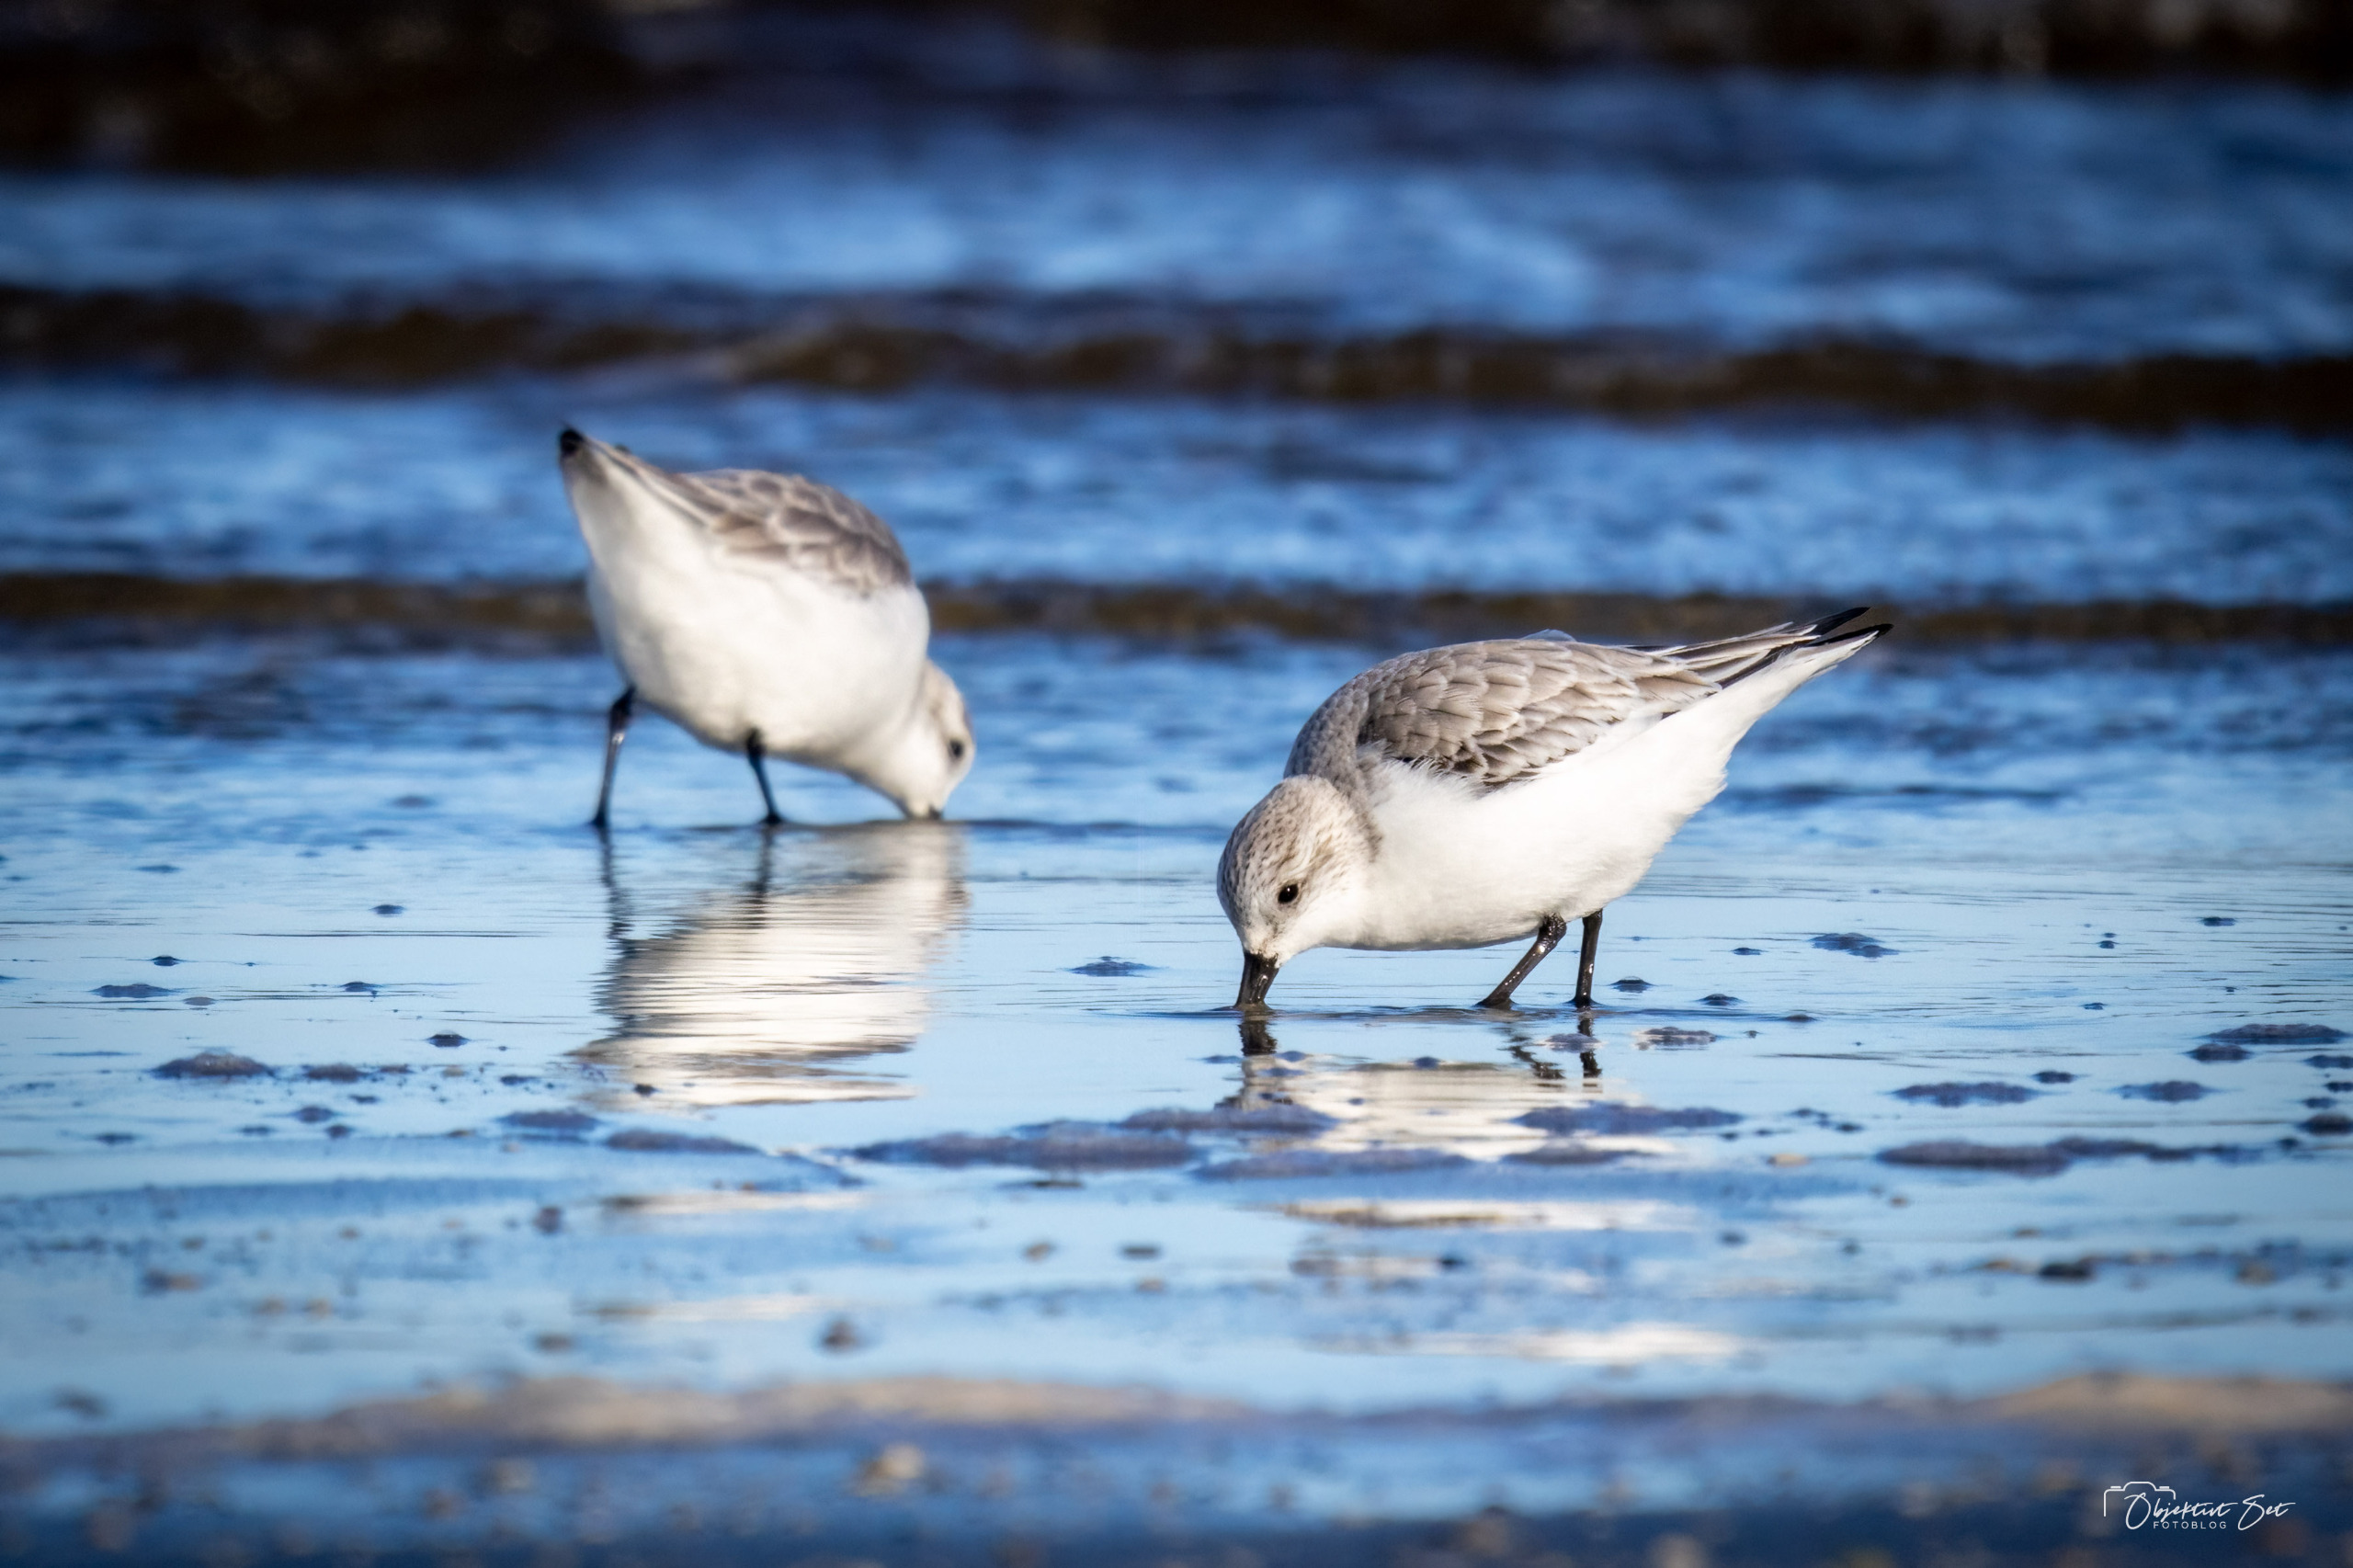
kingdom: Animalia
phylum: Chordata
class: Aves
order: Charadriiformes
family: Scolopacidae
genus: Calidris
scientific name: Calidris alba
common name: Sandløber
